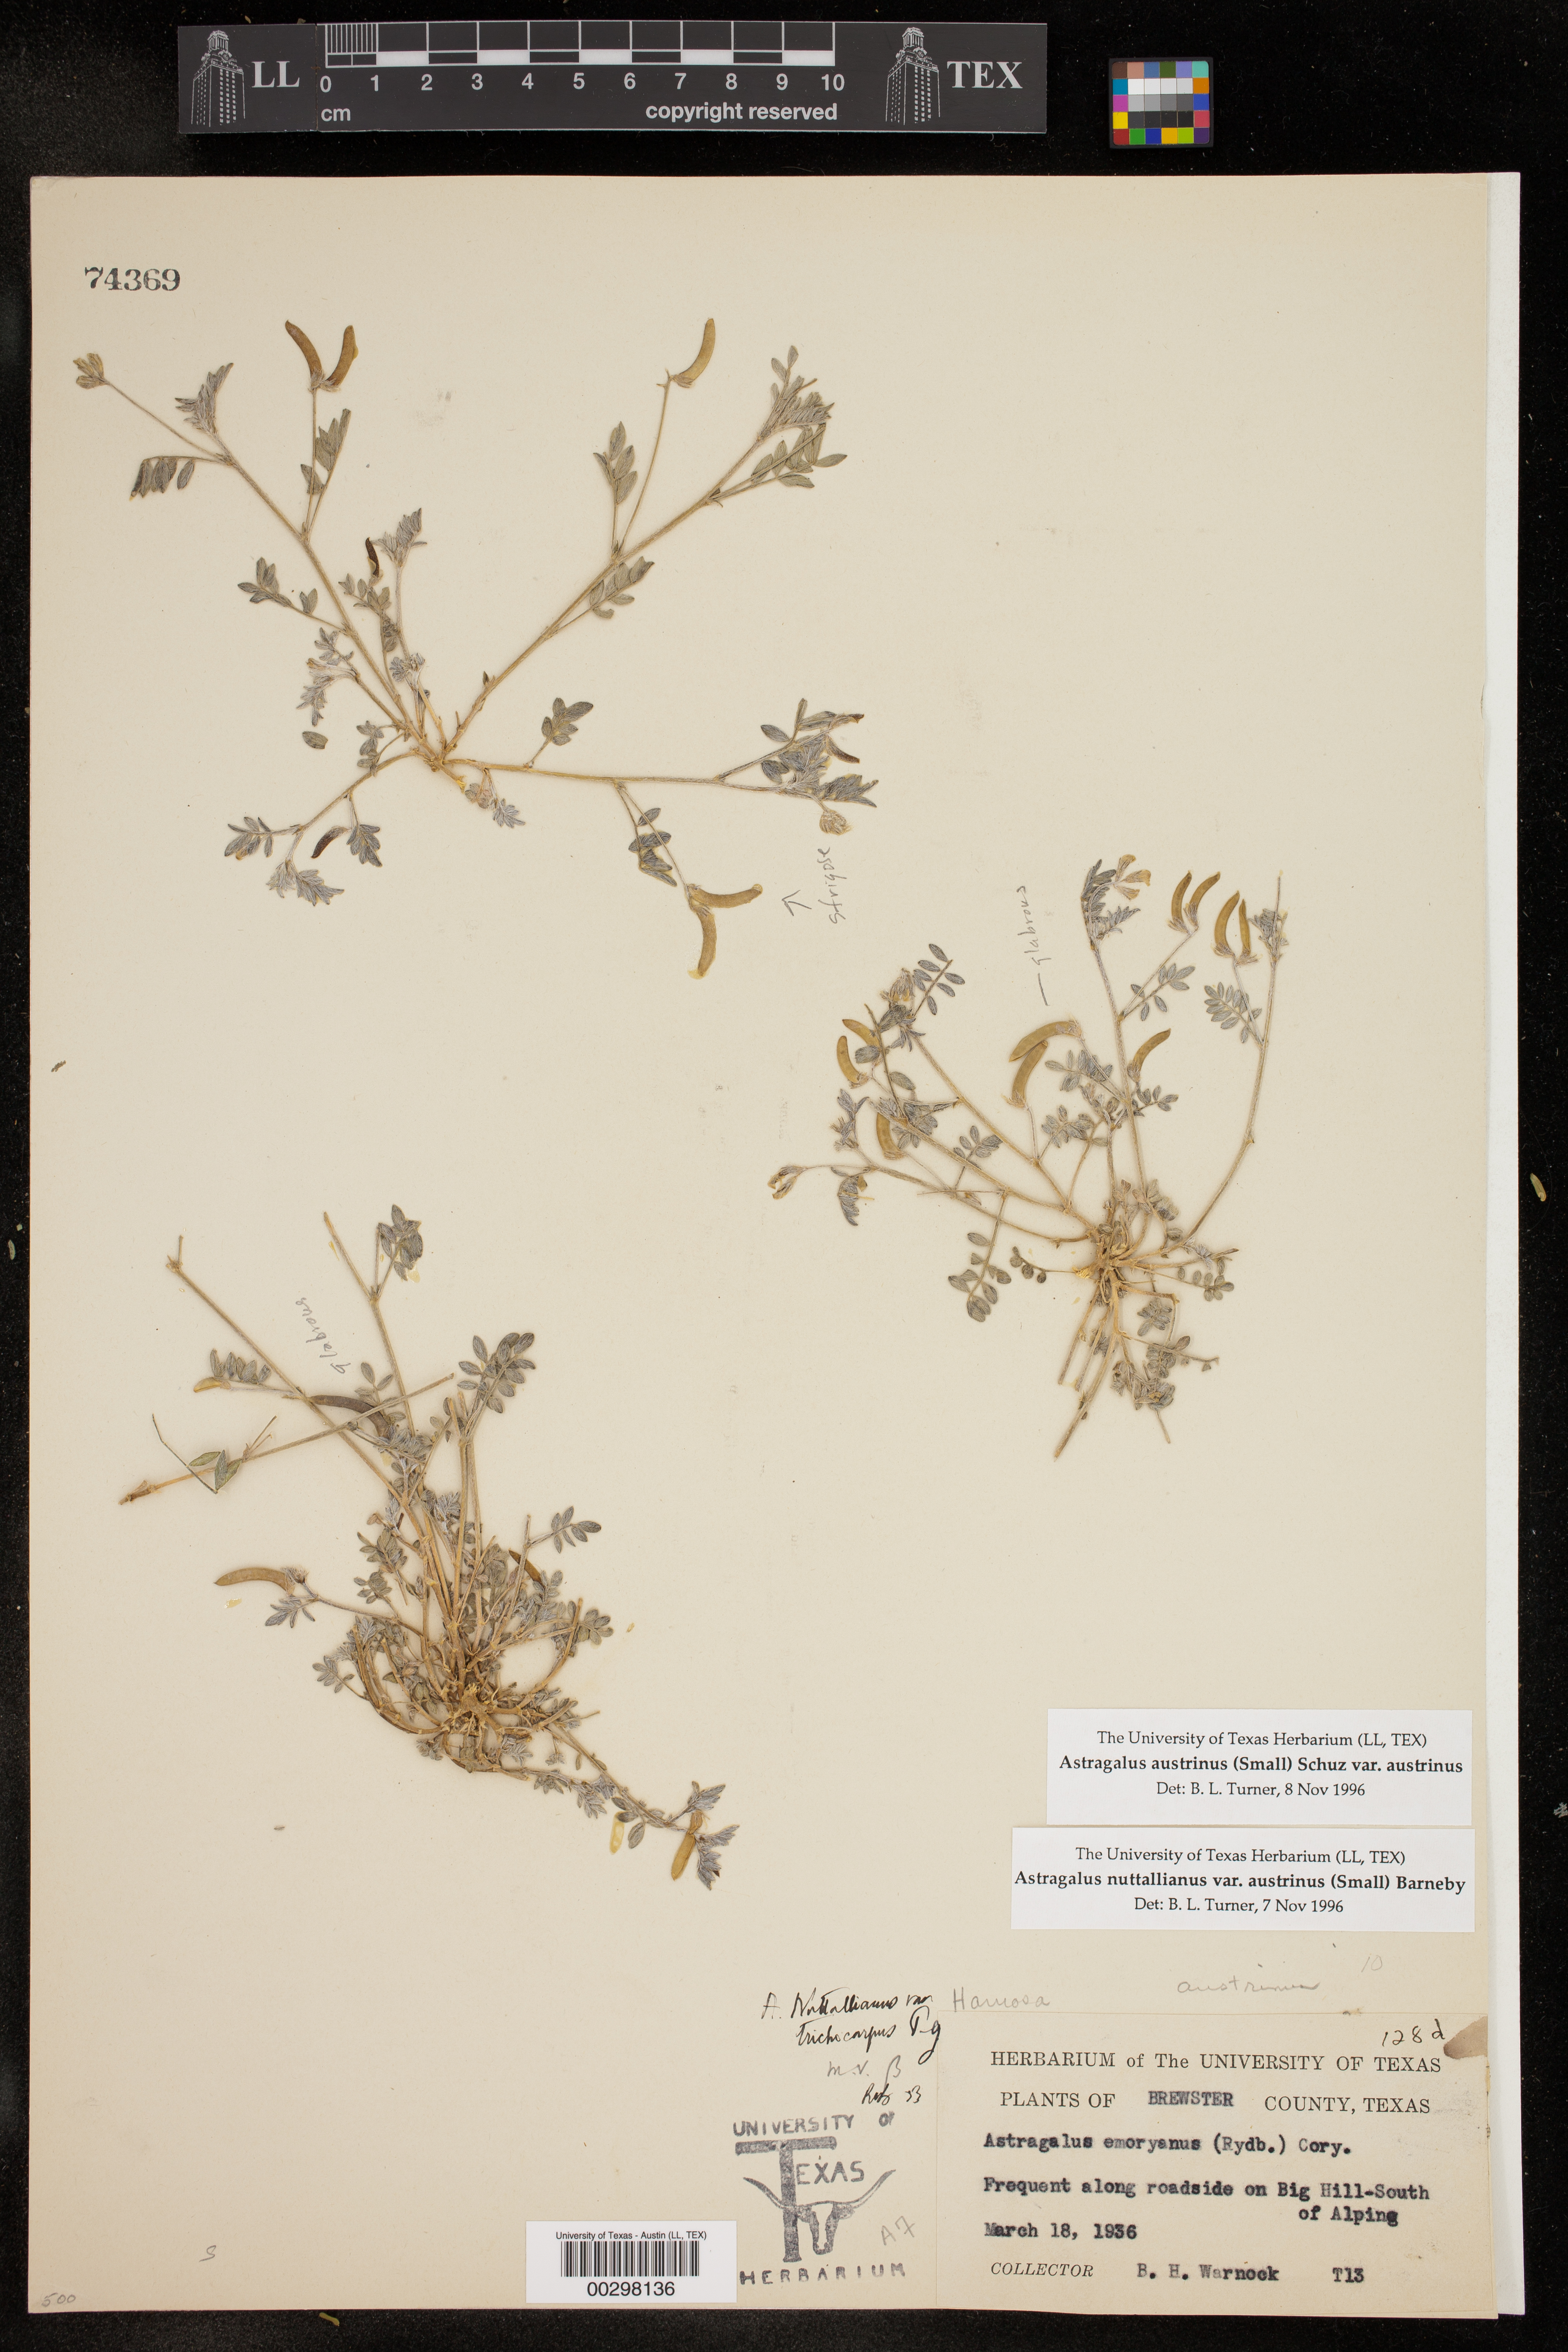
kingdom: Plantae
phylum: Tracheophyta
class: Magnoliopsida
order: Fabales
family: Fabaceae
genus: Astragalus
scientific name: Astragalus nuttallianus
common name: Smallflowered milkvetch
